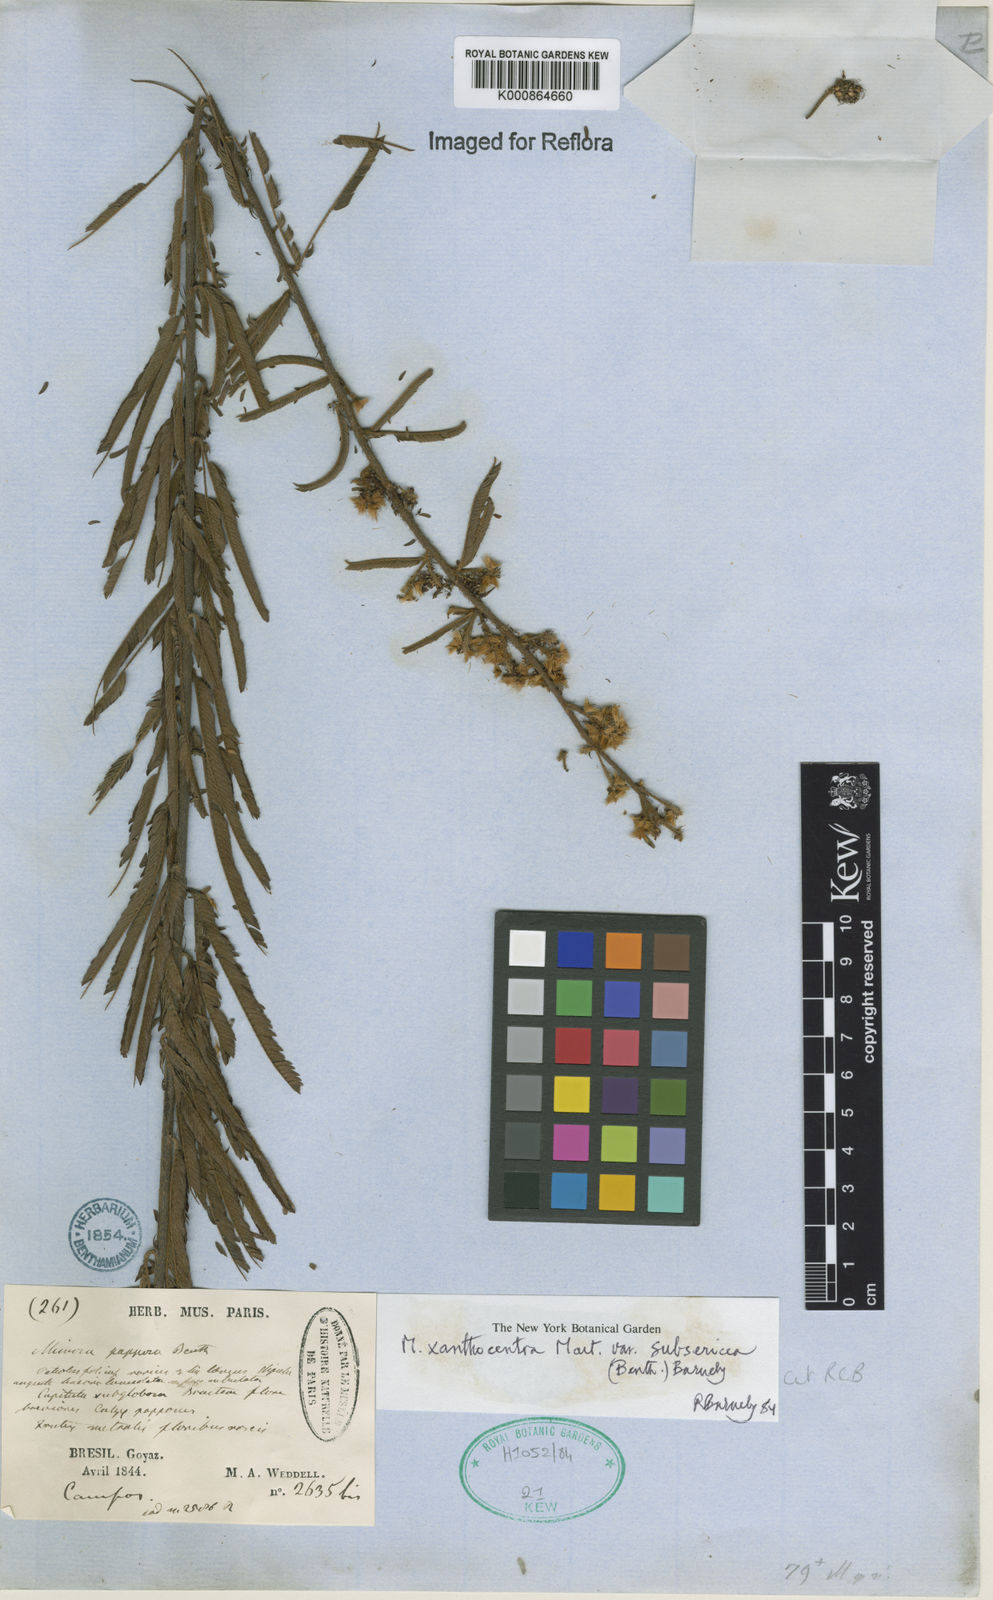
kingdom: Plantae
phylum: Tracheophyta
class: Magnoliopsida
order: Fabales
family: Fabaceae
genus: Mimosa
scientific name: Mimosa xanthocentra
